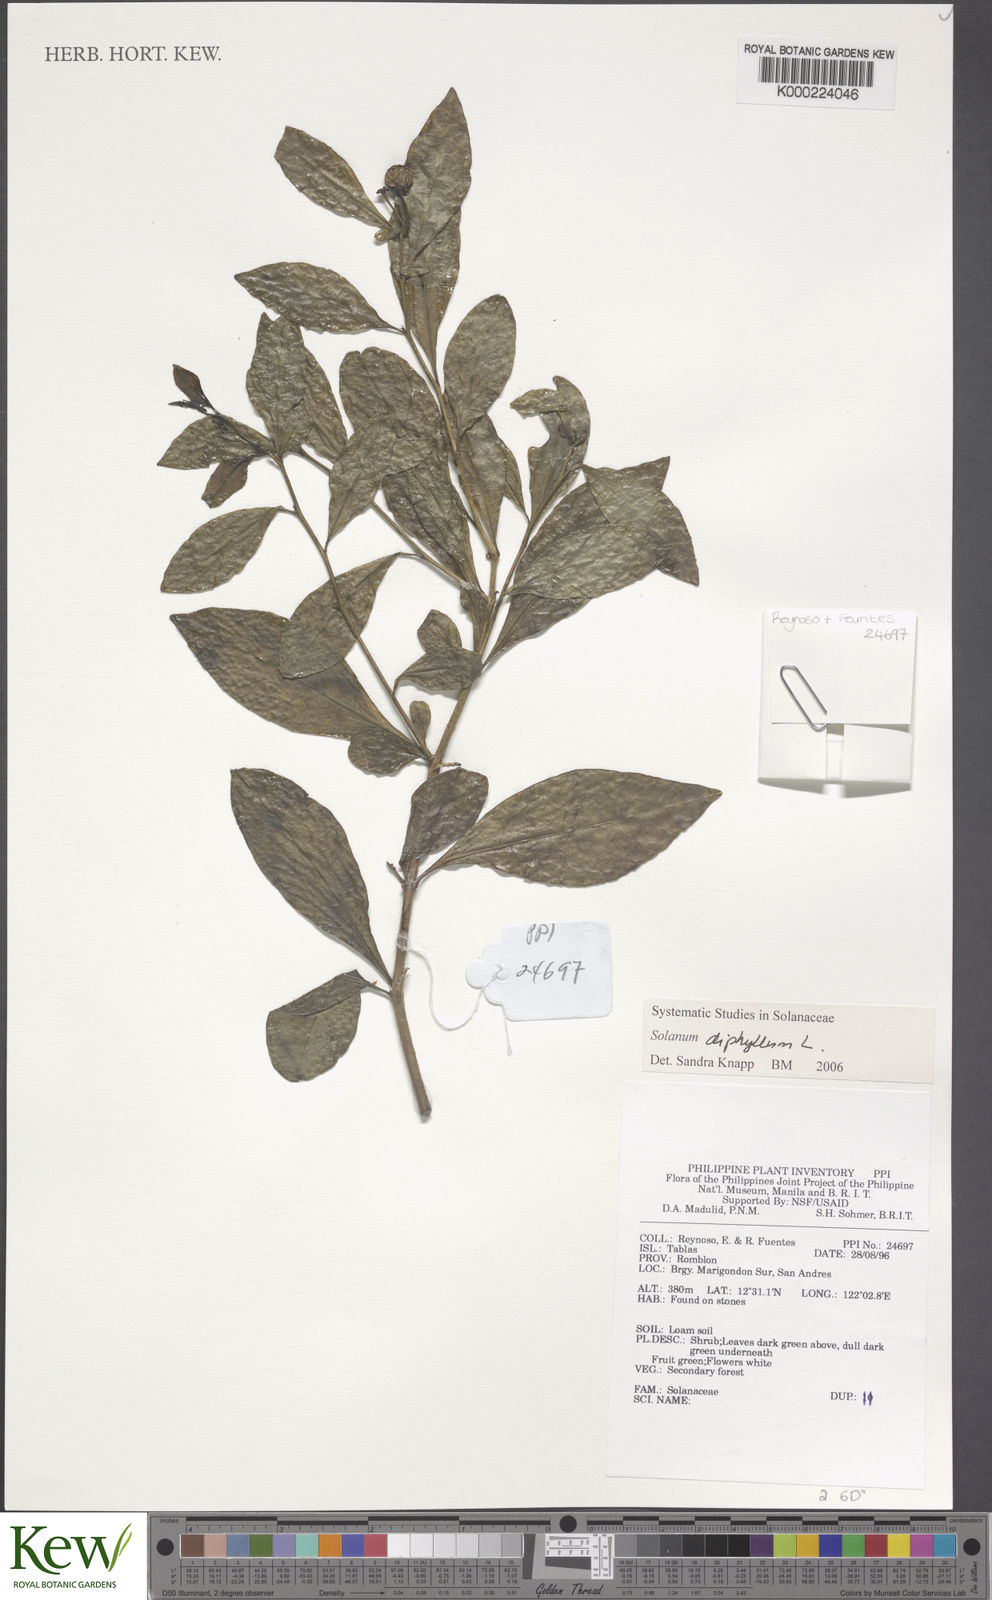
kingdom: Plantae
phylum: Tracheophyta
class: Magnoliopsida
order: Solanales
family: Solanaceae
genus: Solanum
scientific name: Solanum diphyllum
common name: Twoleaf nightshade
